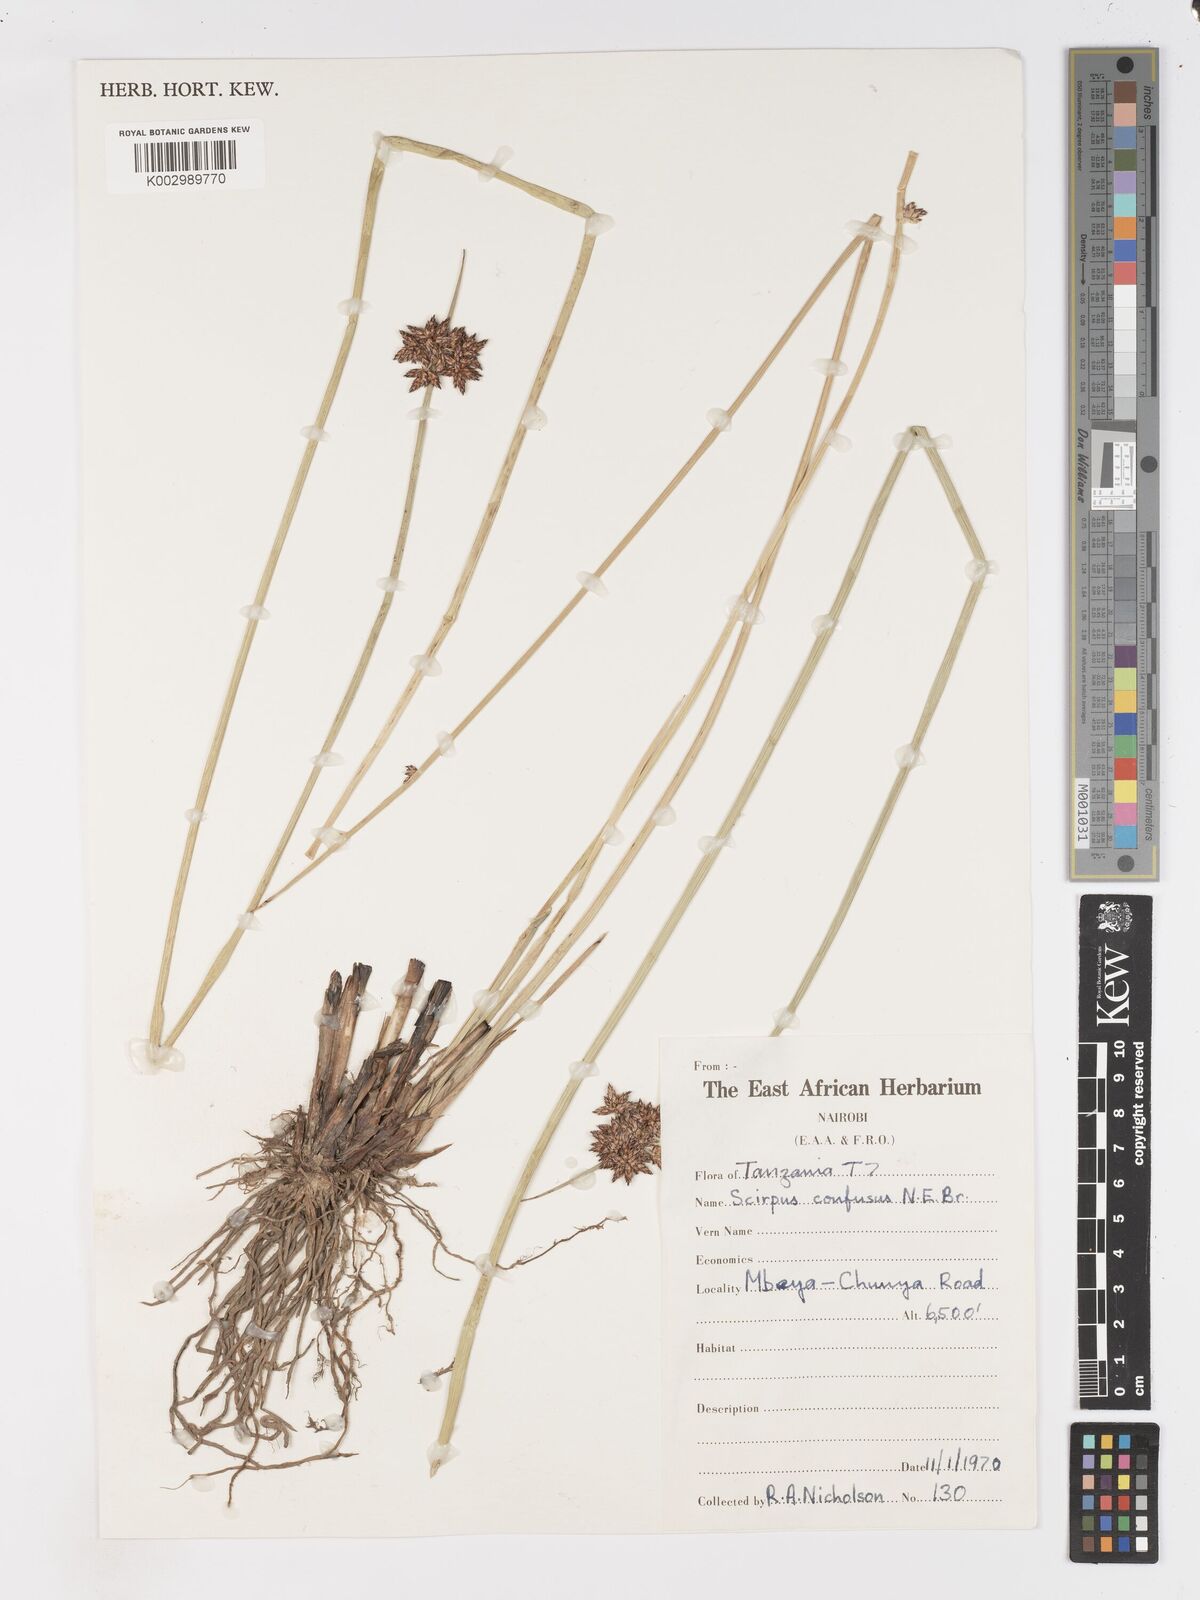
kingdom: Plantae
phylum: Tracheophyta
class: Liliopsida
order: Poales
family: Cyperaceae
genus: Schoenoplectiella
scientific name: Schoenoplectiella confusa
